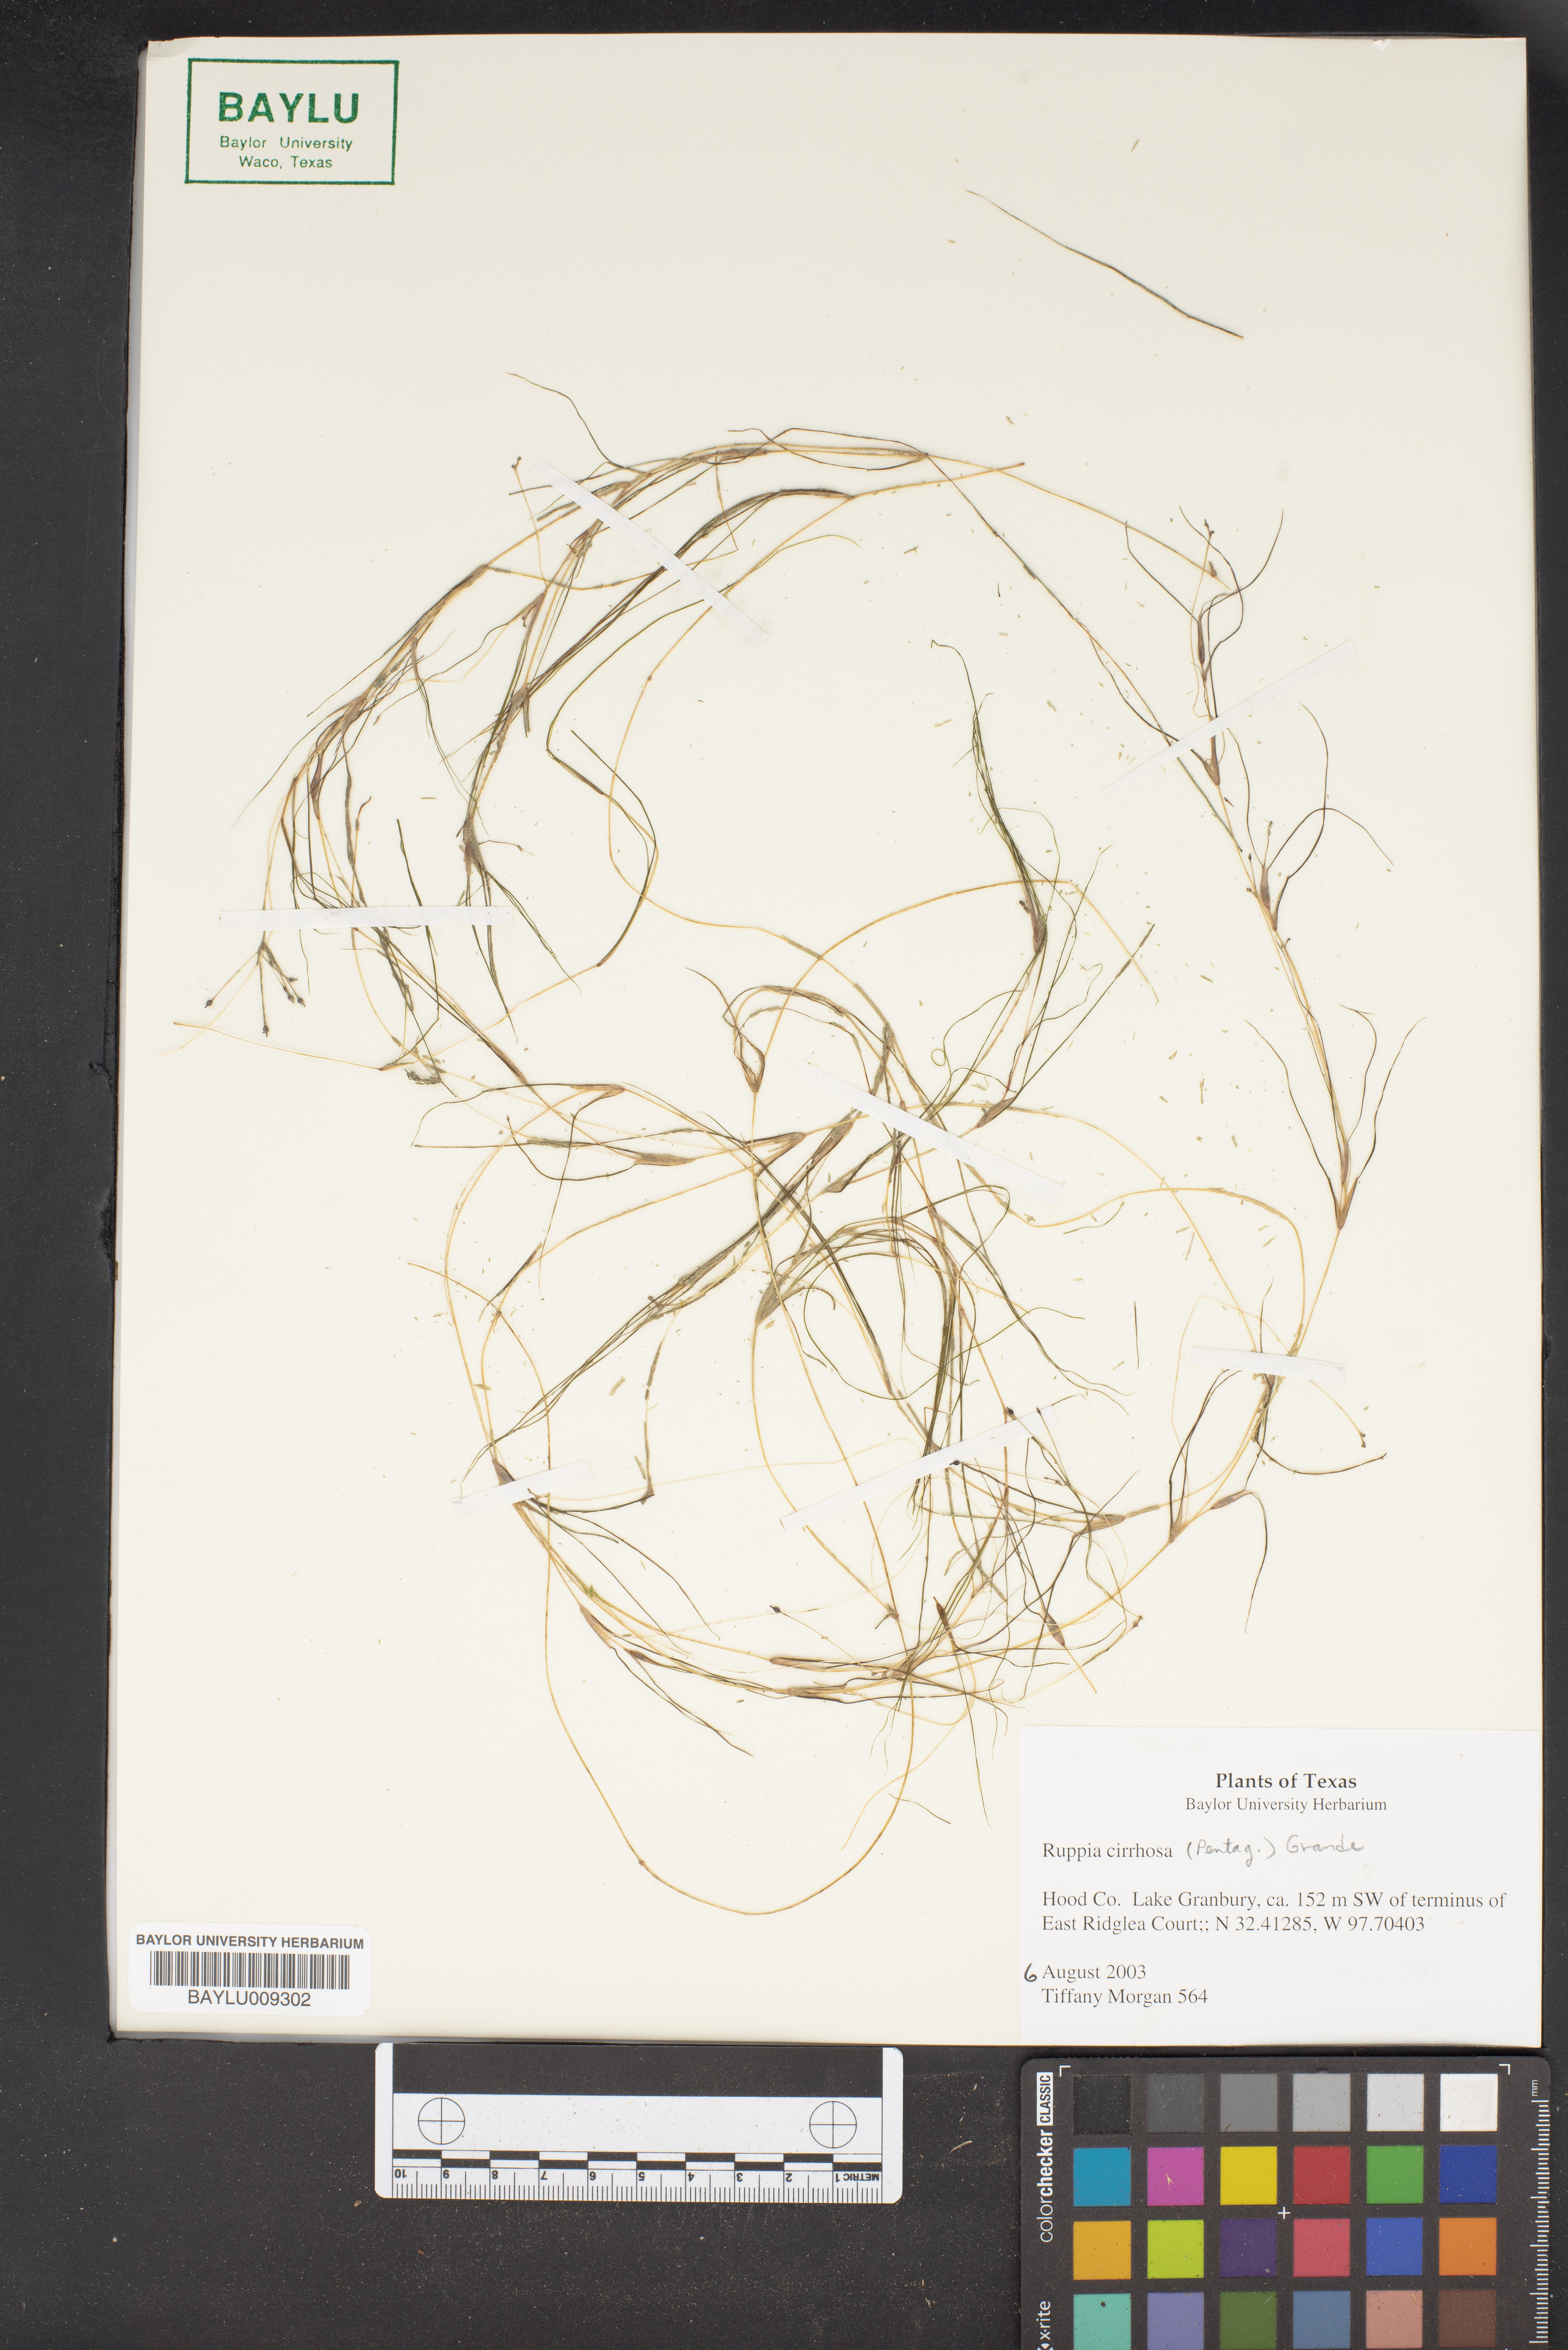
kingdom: Plantae
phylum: Tracheophyta
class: Liliopsida
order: Alismatales
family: Ruppiaceae
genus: Ruppia
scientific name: Ruppia cirrhosa
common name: Spiral tasselweed
